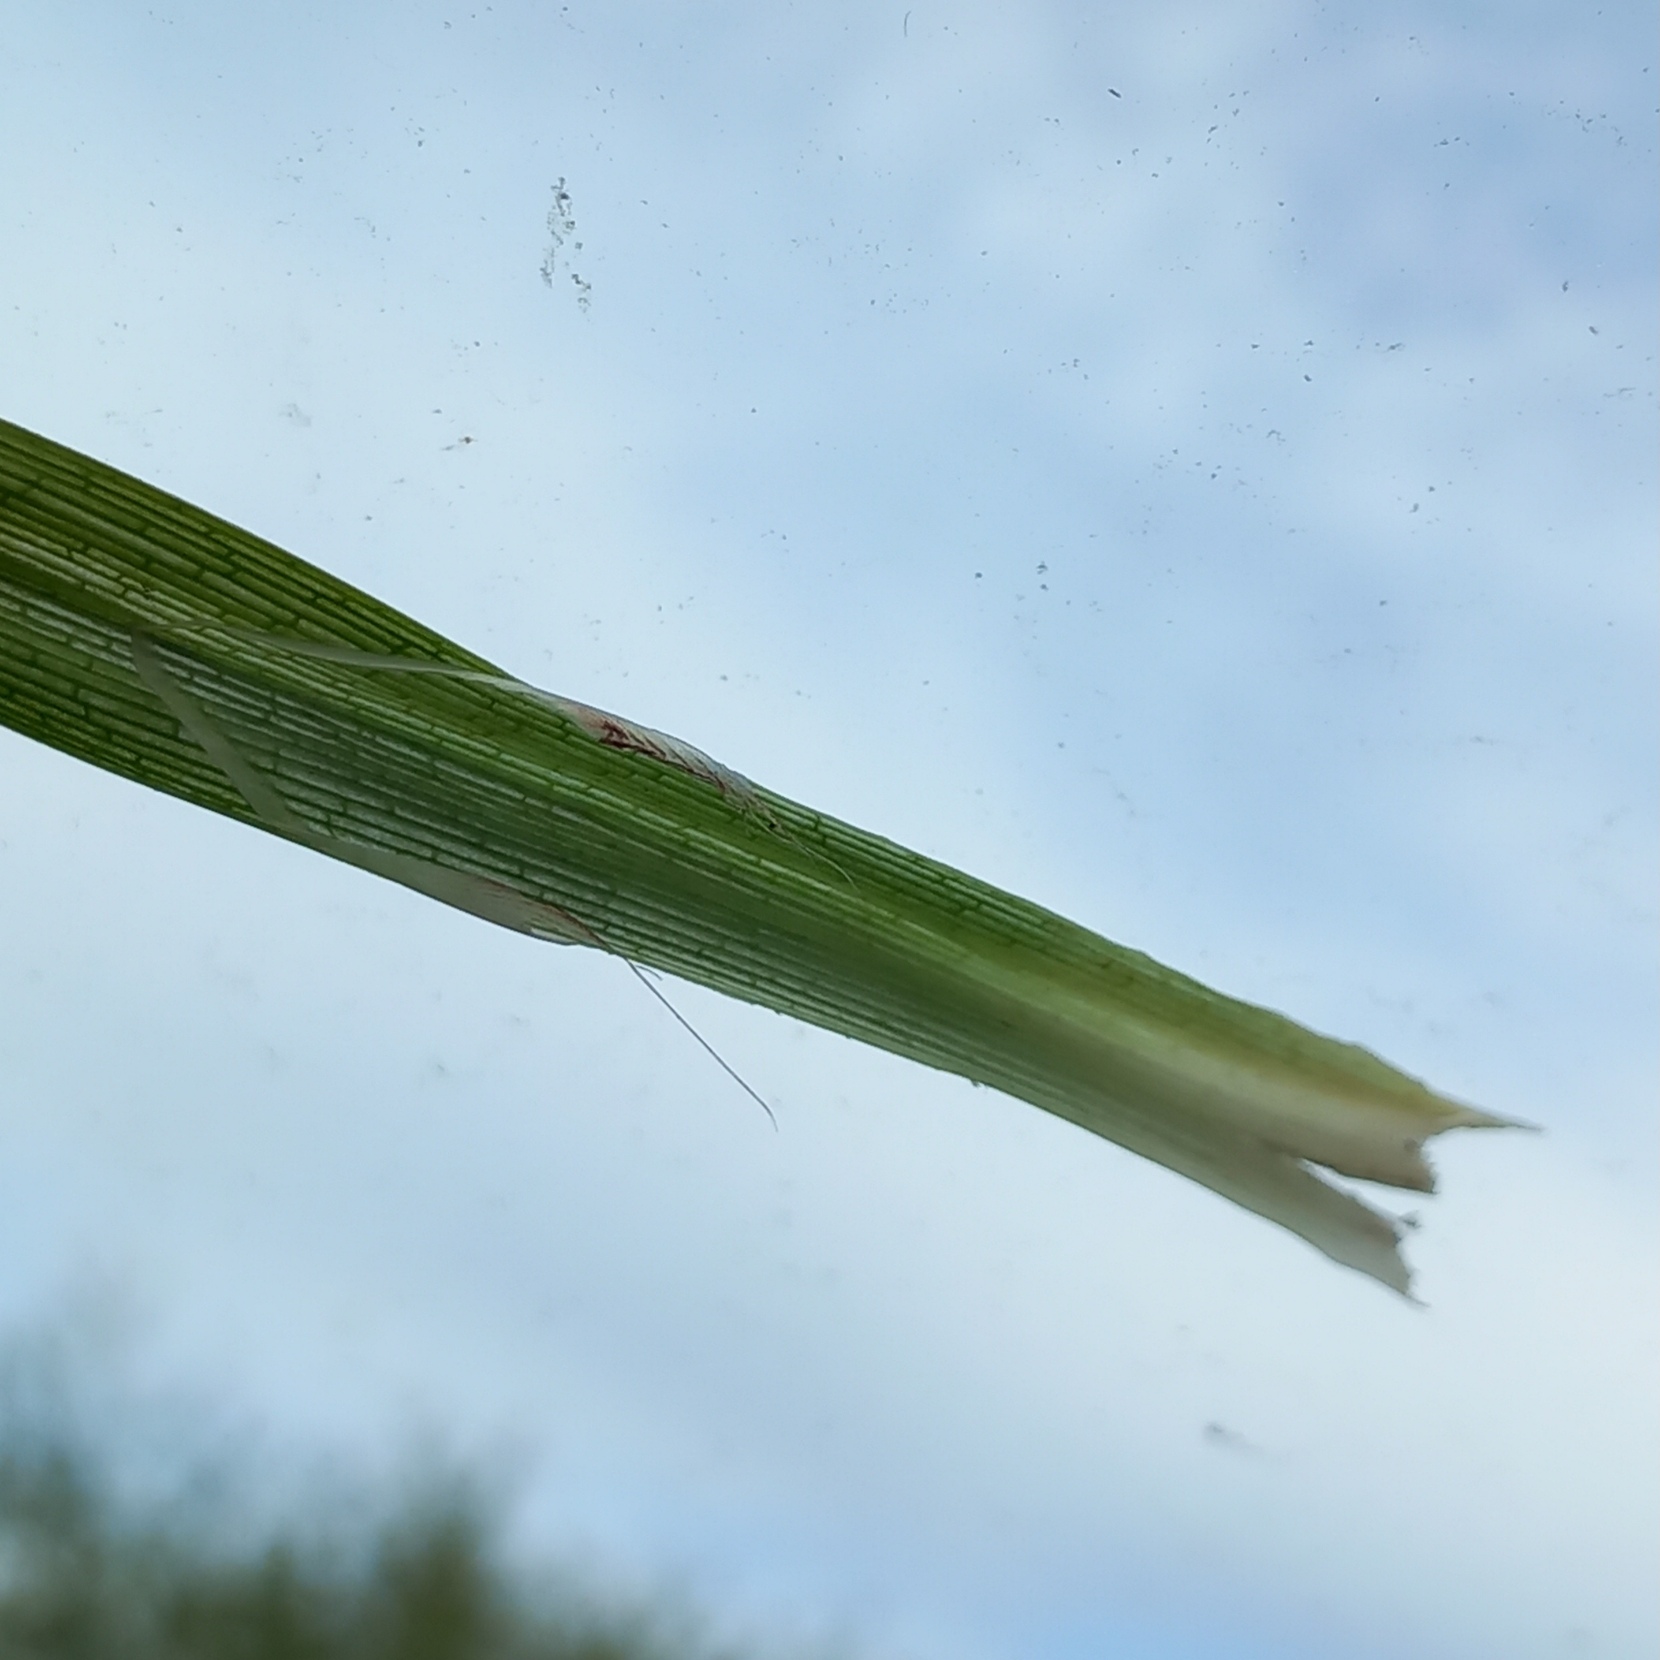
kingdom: Plantae
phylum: Tracheophyta
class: Liliopsida
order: Poales
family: Cyperaceae
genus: Carex
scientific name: Carex acutiformis
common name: Kær-star
